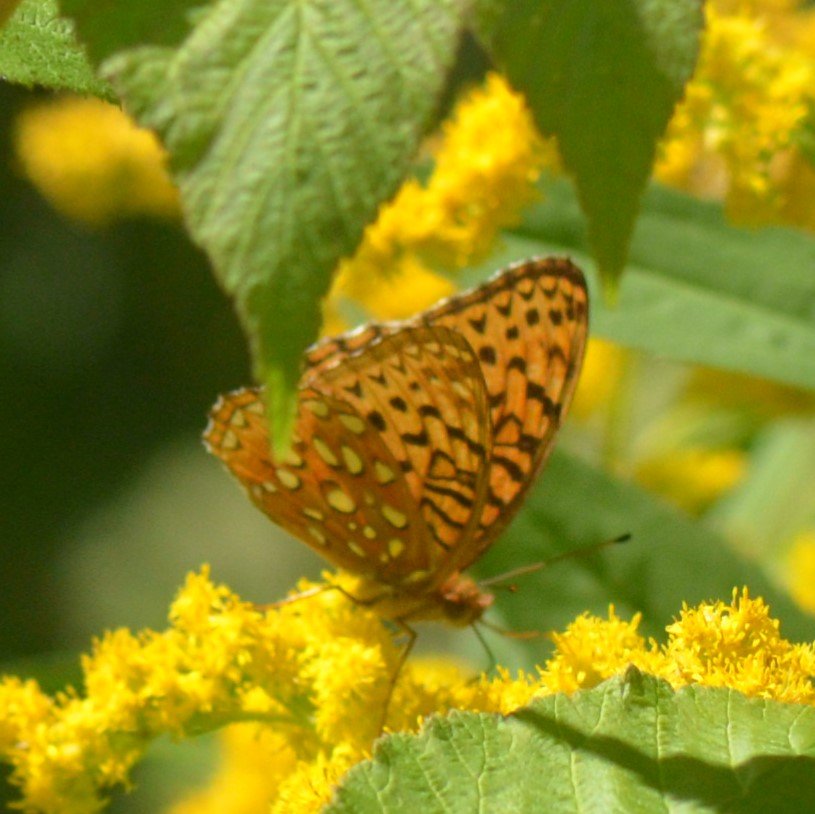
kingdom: Animalia
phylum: Arthropoda
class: Insecta
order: Lepidoptera
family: Nymphalidae
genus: Speyeria
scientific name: Speyeria cybele
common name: Great Spangled Fritillary
